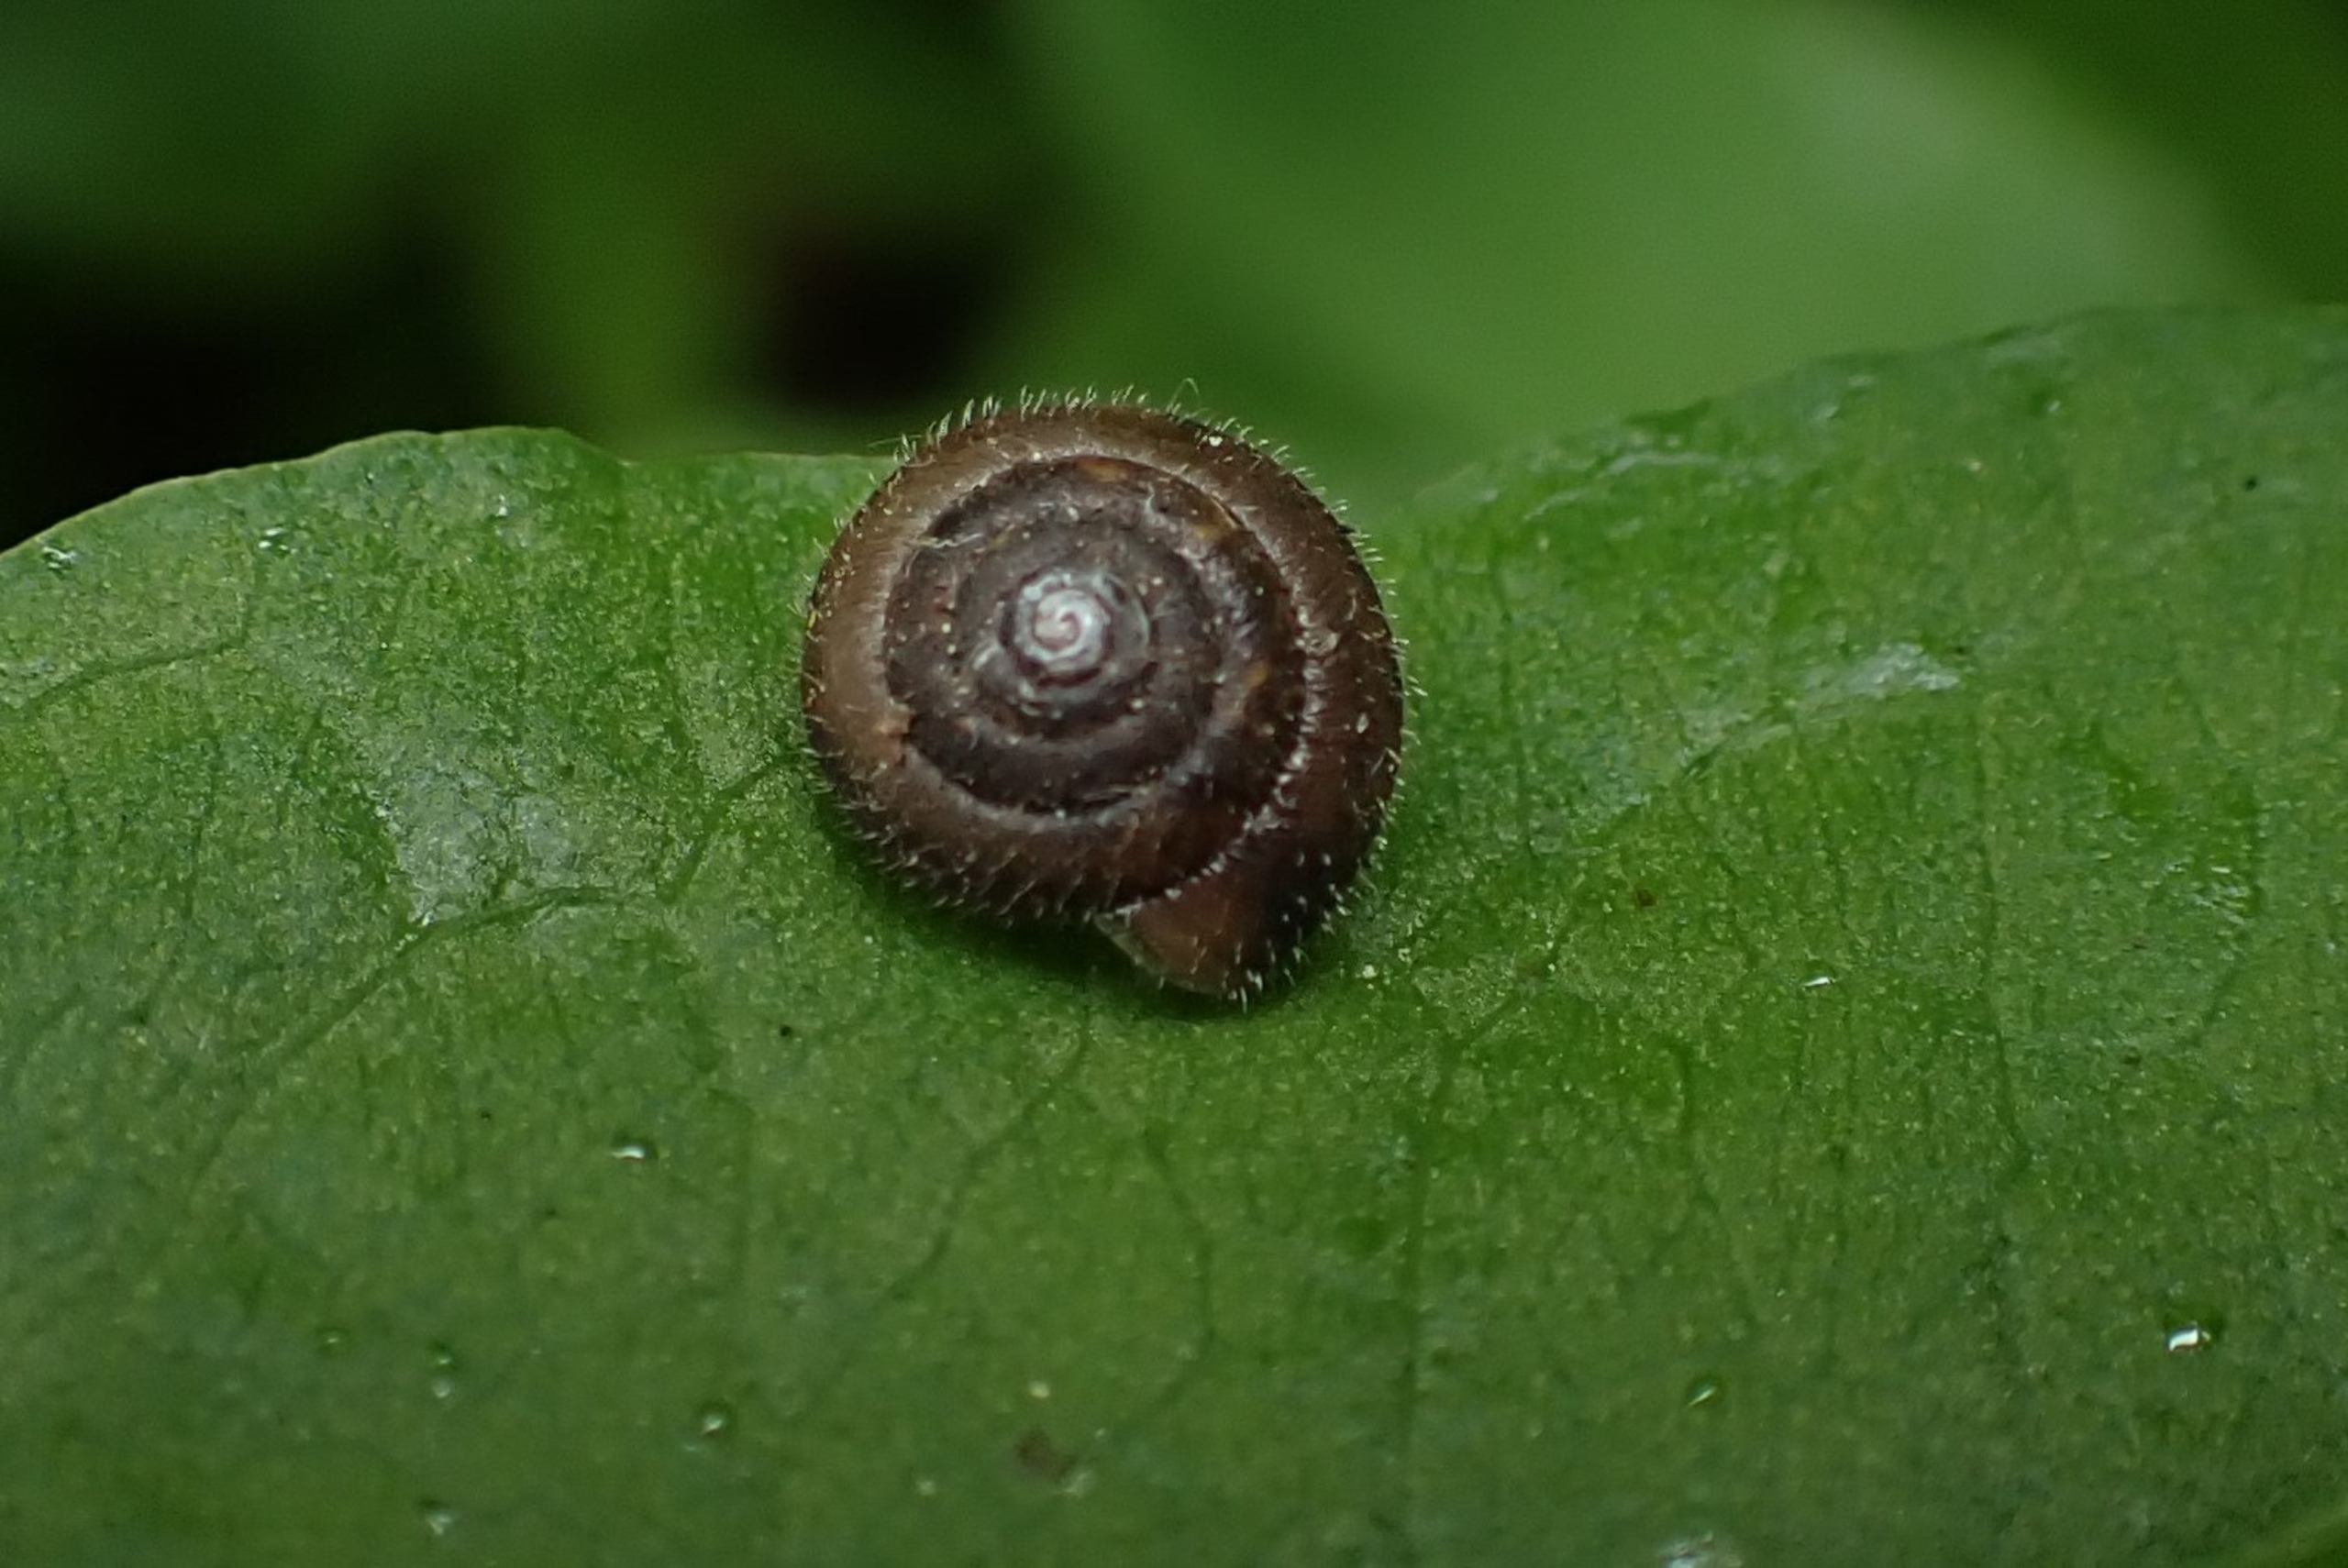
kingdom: Animalia
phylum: Mollusca
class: Gastropoda
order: Stylommatophora
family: Hygromiidae
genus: Trochulus
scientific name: Trochulus hispidus
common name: Håret snegl
